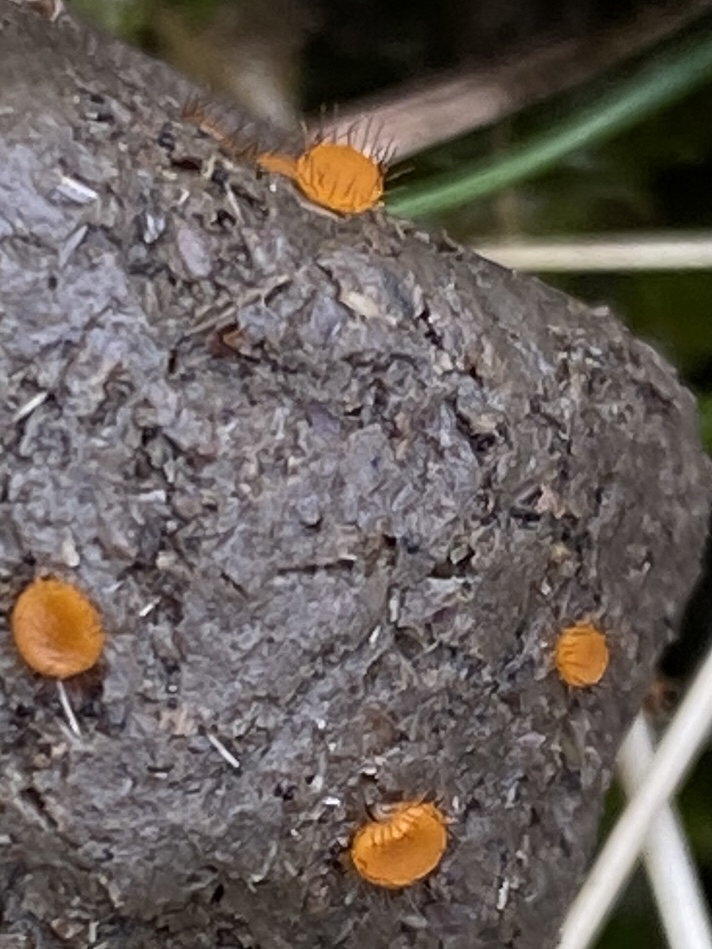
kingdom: Fungi
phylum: Ascomycota
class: Pezizomycetes
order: Pezizales
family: Pyronemataceae
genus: Cheilymenia
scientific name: Cheilymenia
